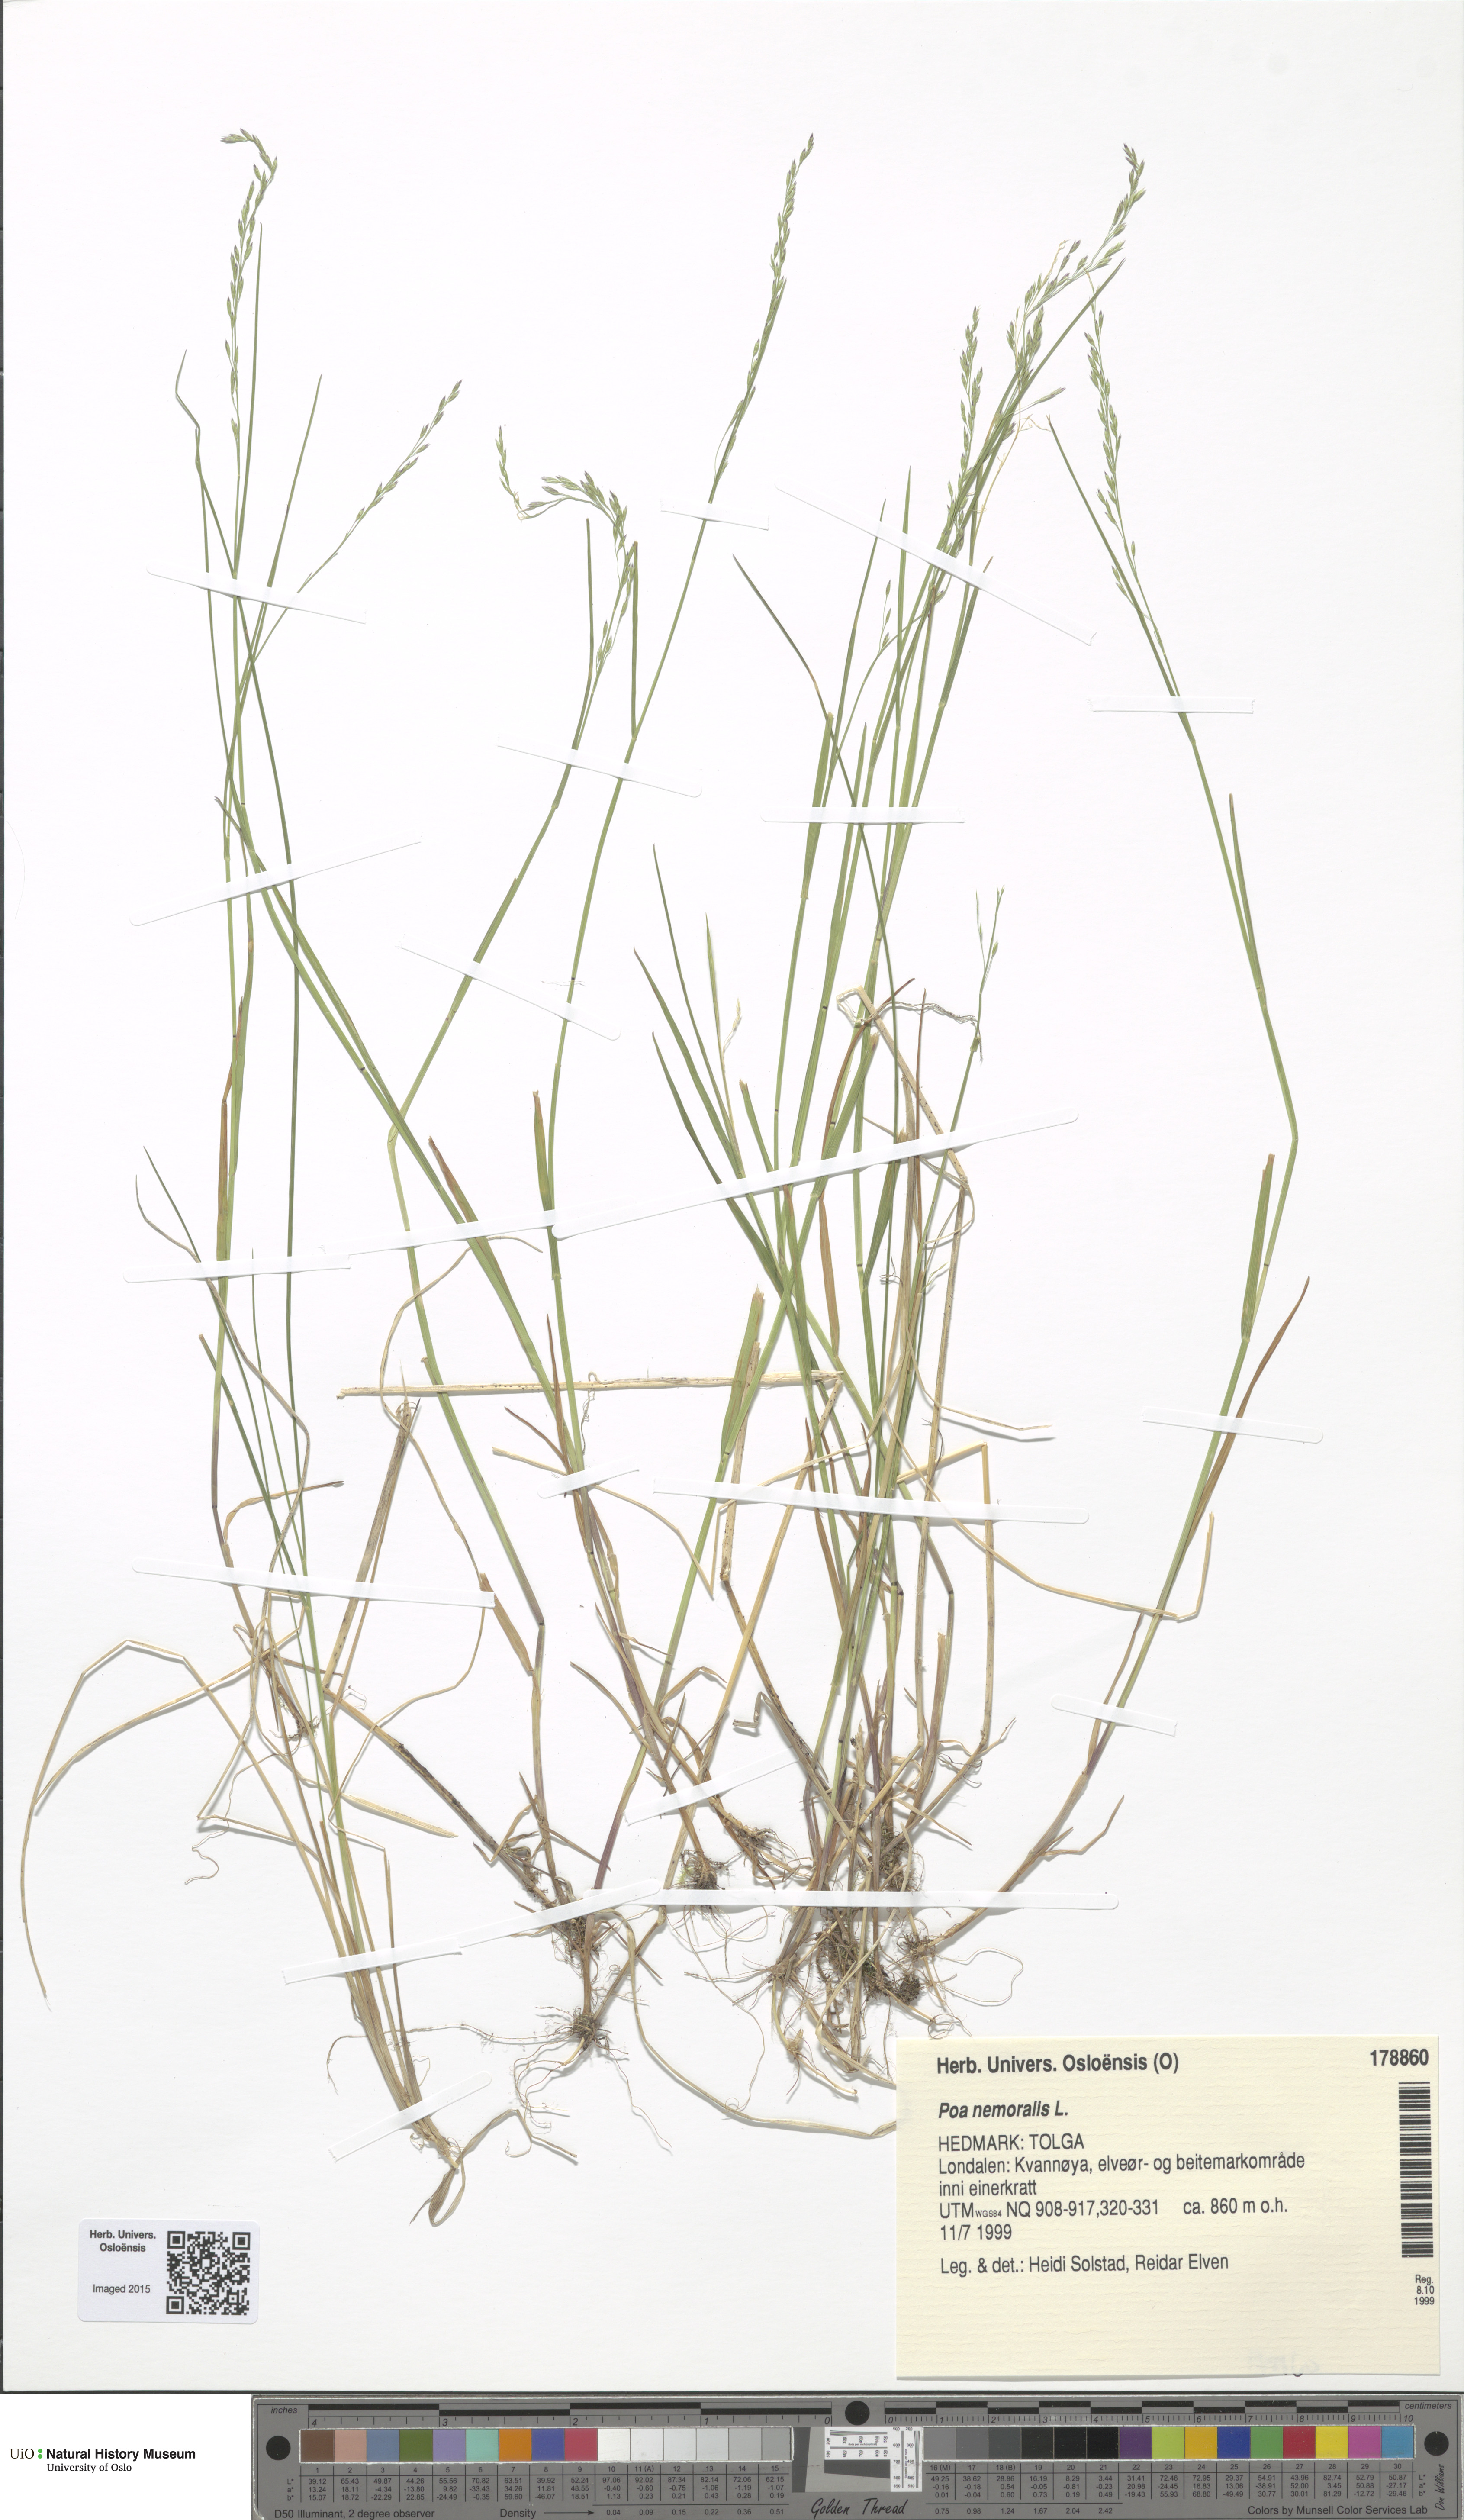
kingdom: Plantae
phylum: Tracheophyta
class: Liliopsida
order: Poales
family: Poaceae
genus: Poa
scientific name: Poa nemoralis
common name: Wood bluegrass
